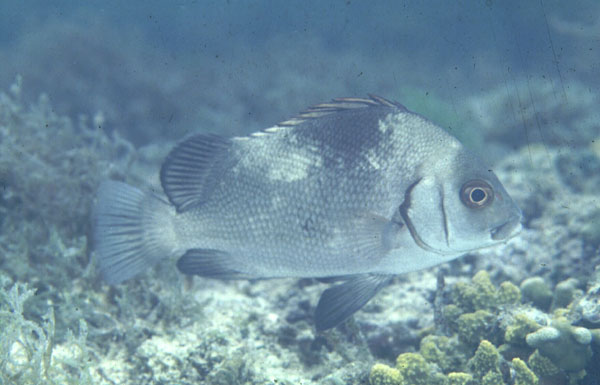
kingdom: Animalia
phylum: Chordata
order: Perciformes
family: Haemulidae
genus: Plectorhinchus
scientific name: Plectorhinchus
